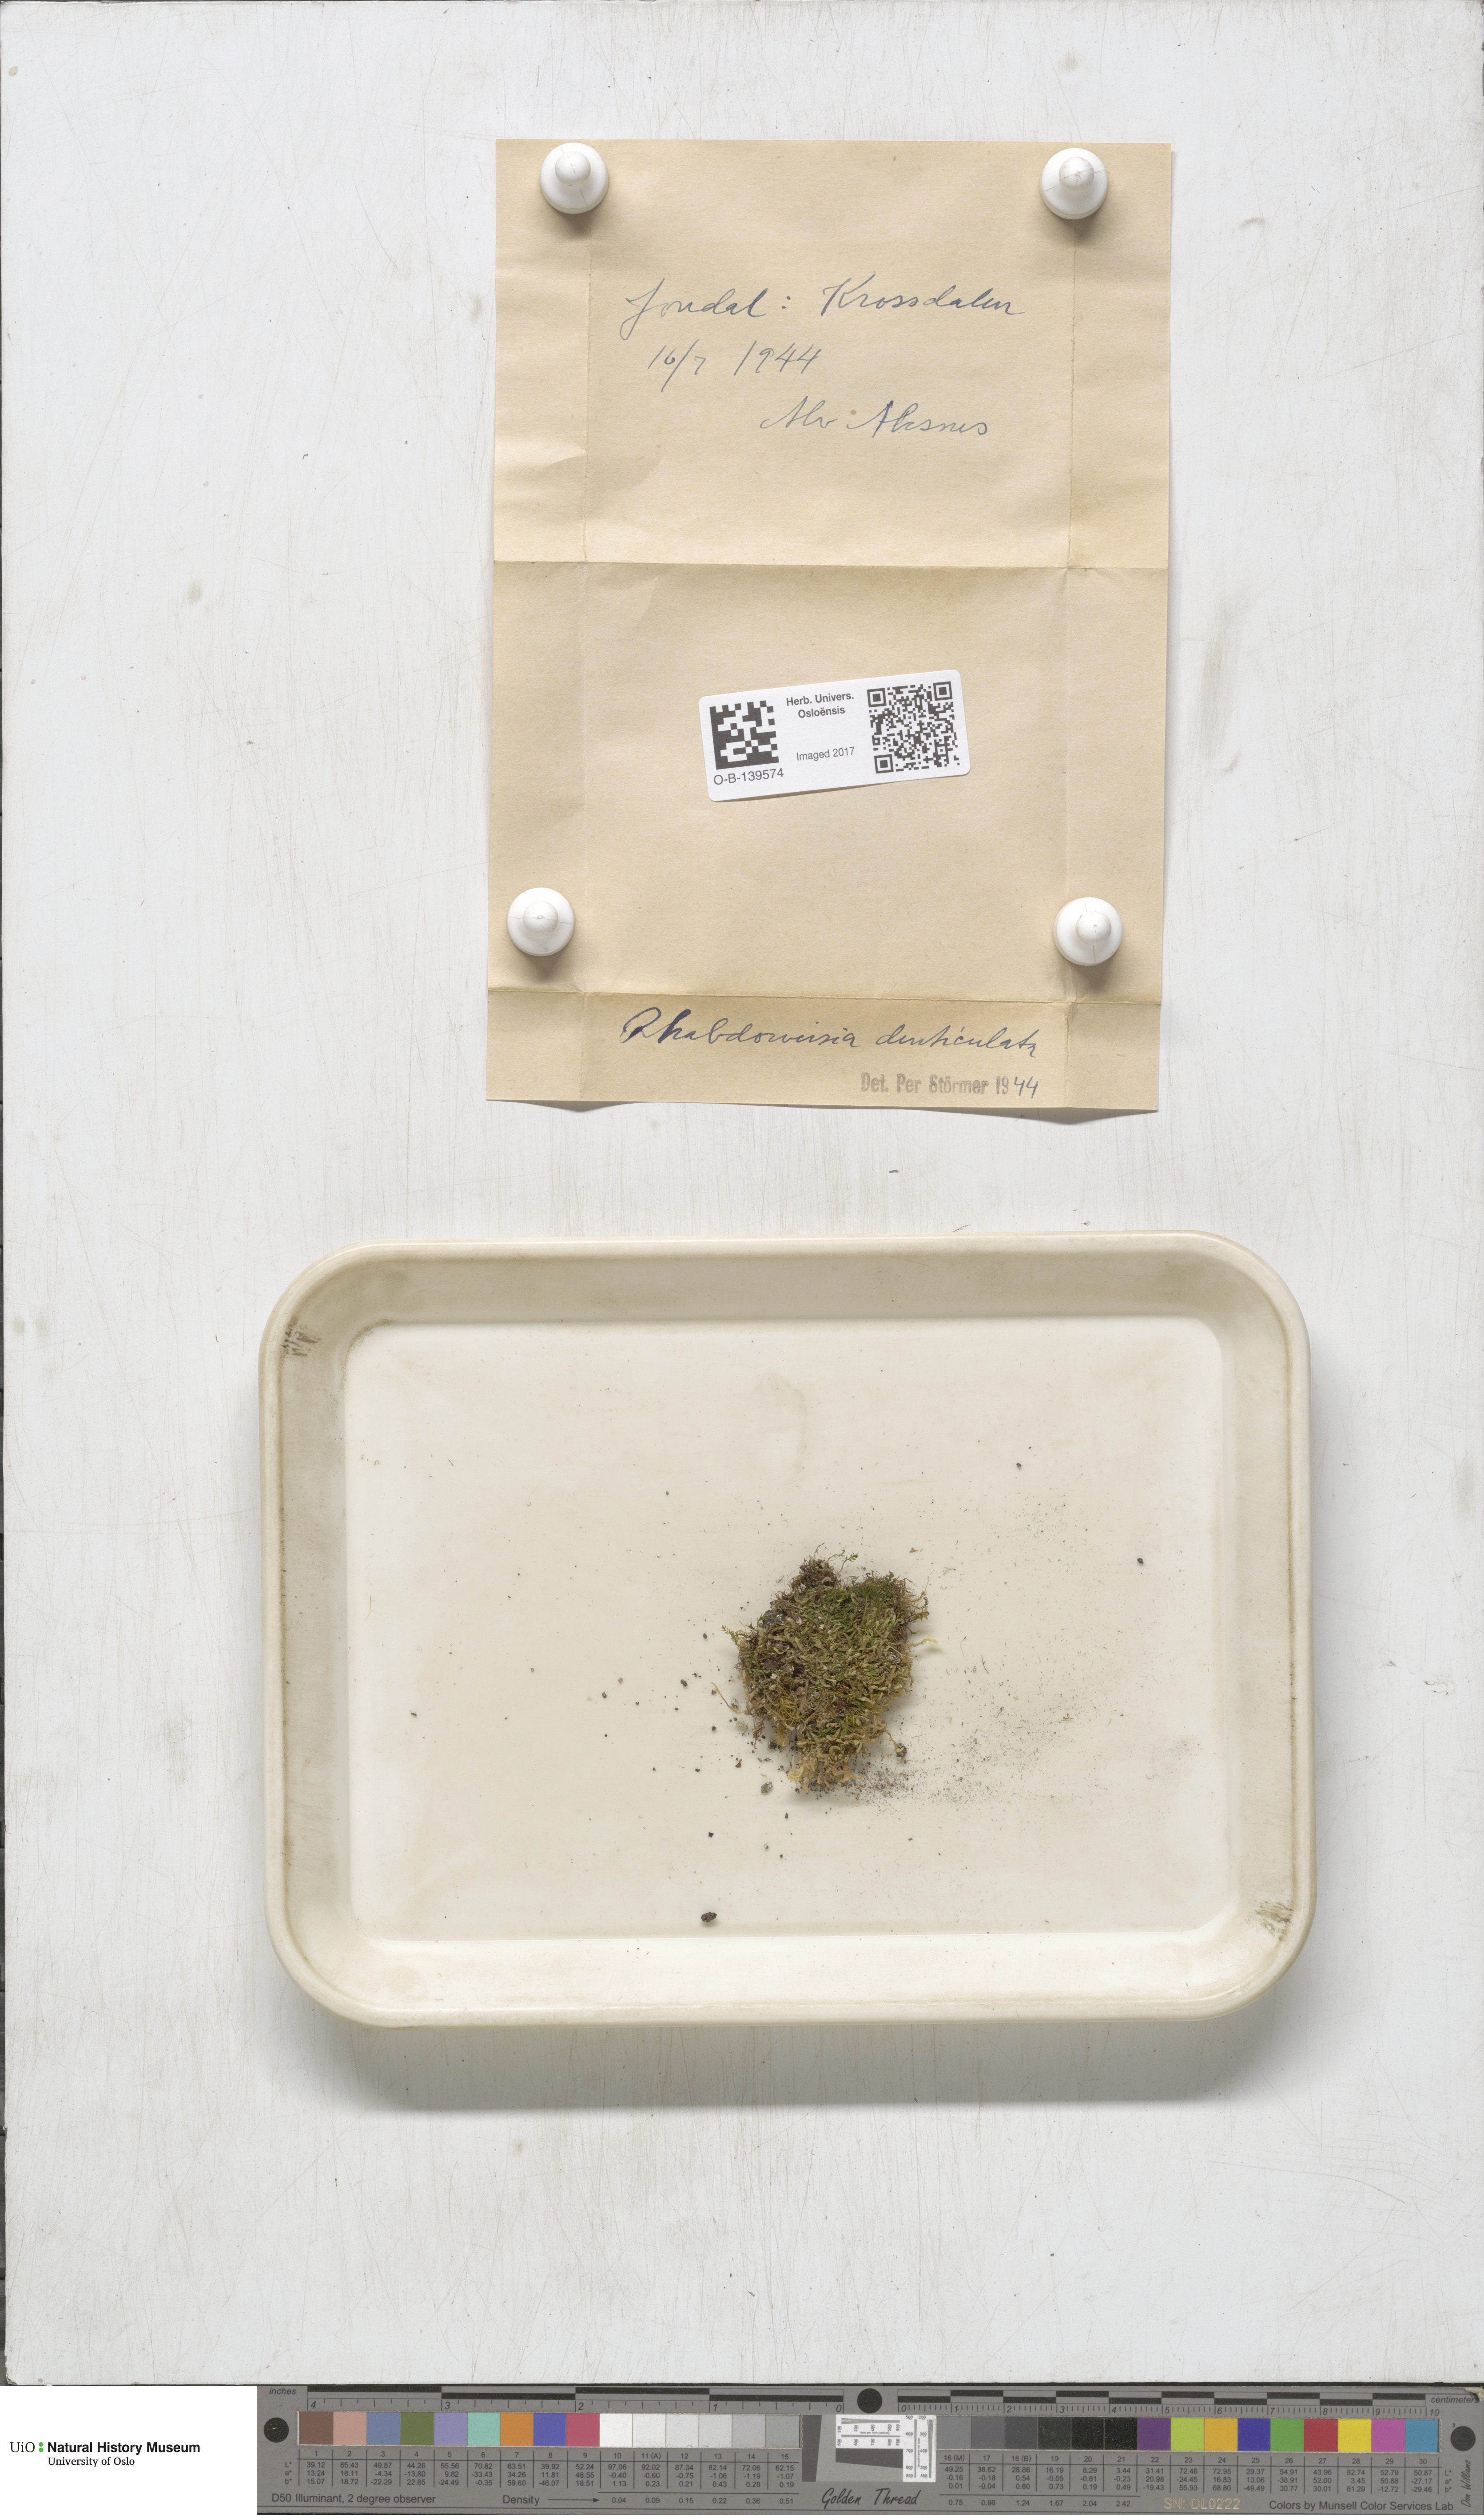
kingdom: Plantae
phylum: Bryophyta
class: Bryopsida
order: Dicranales
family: Rhabdoweisiaceae
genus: Rhabdoweisia
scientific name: Rhabdoweisia crispata
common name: Fine-toothed streak moss
